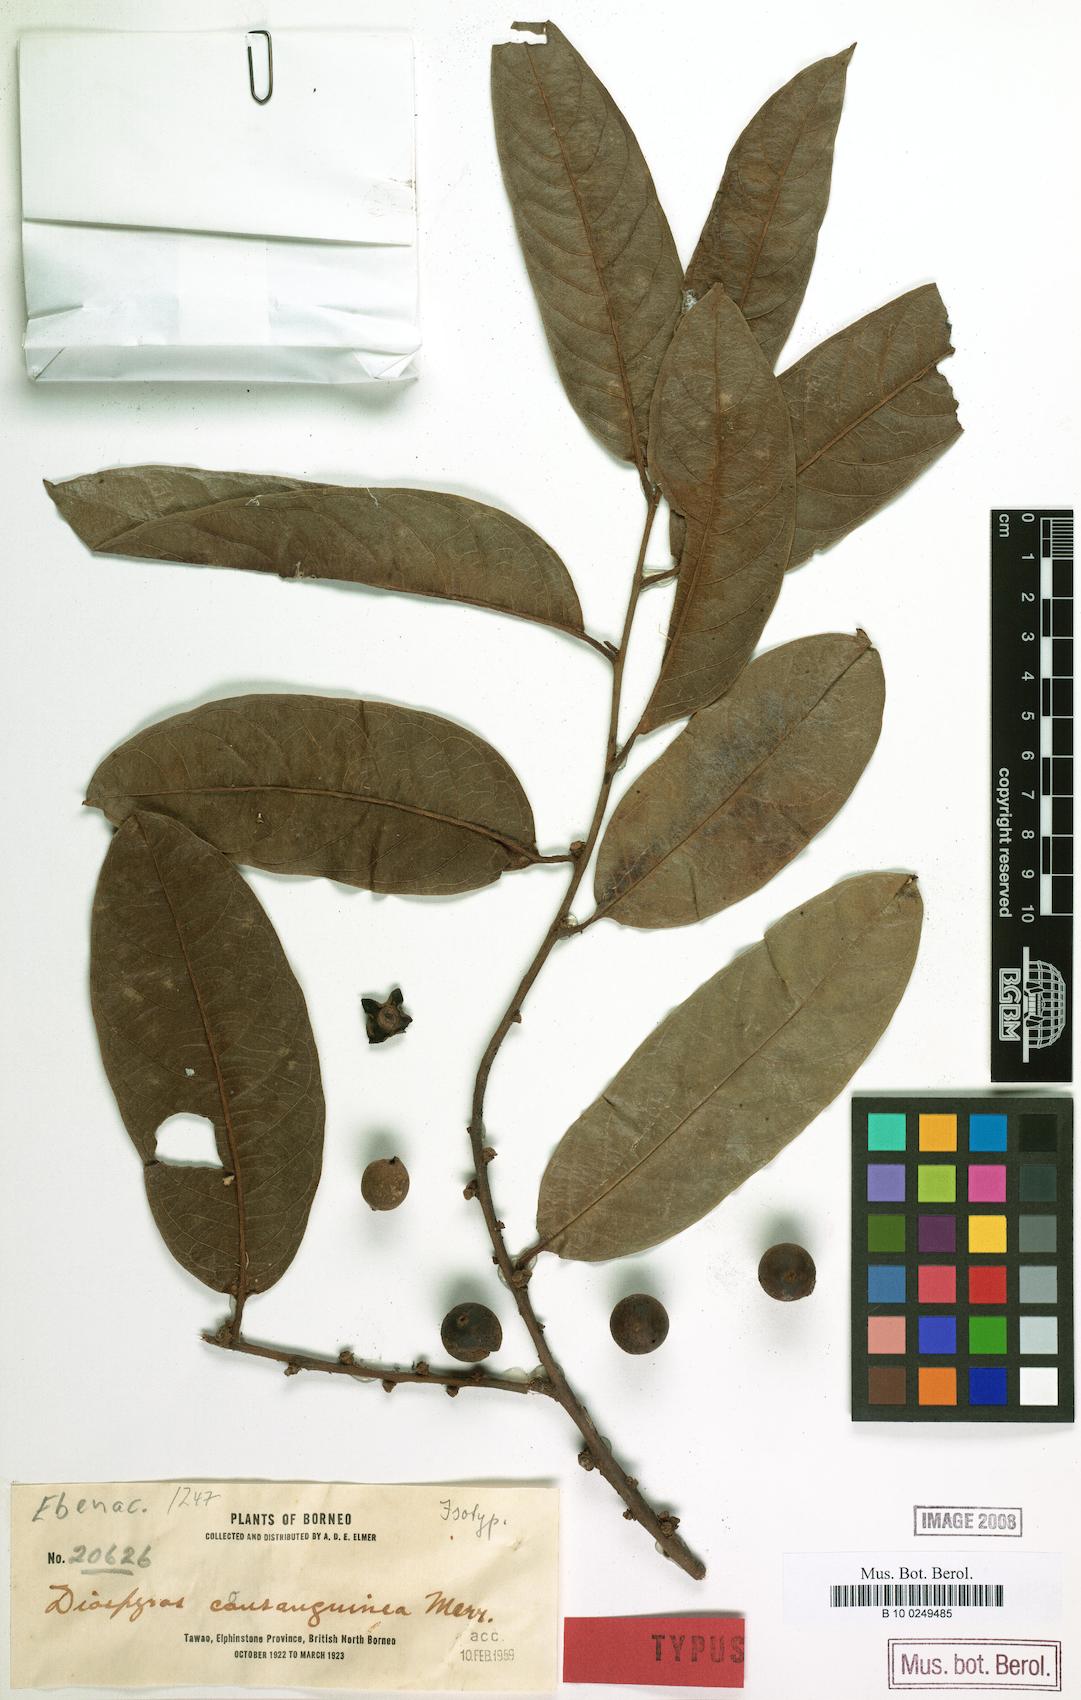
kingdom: Plantae
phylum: Tracheophyta
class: Magnoliopsida
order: Ericales
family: Ebenaceae
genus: Diospyros
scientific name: Diospyros consanguinea
